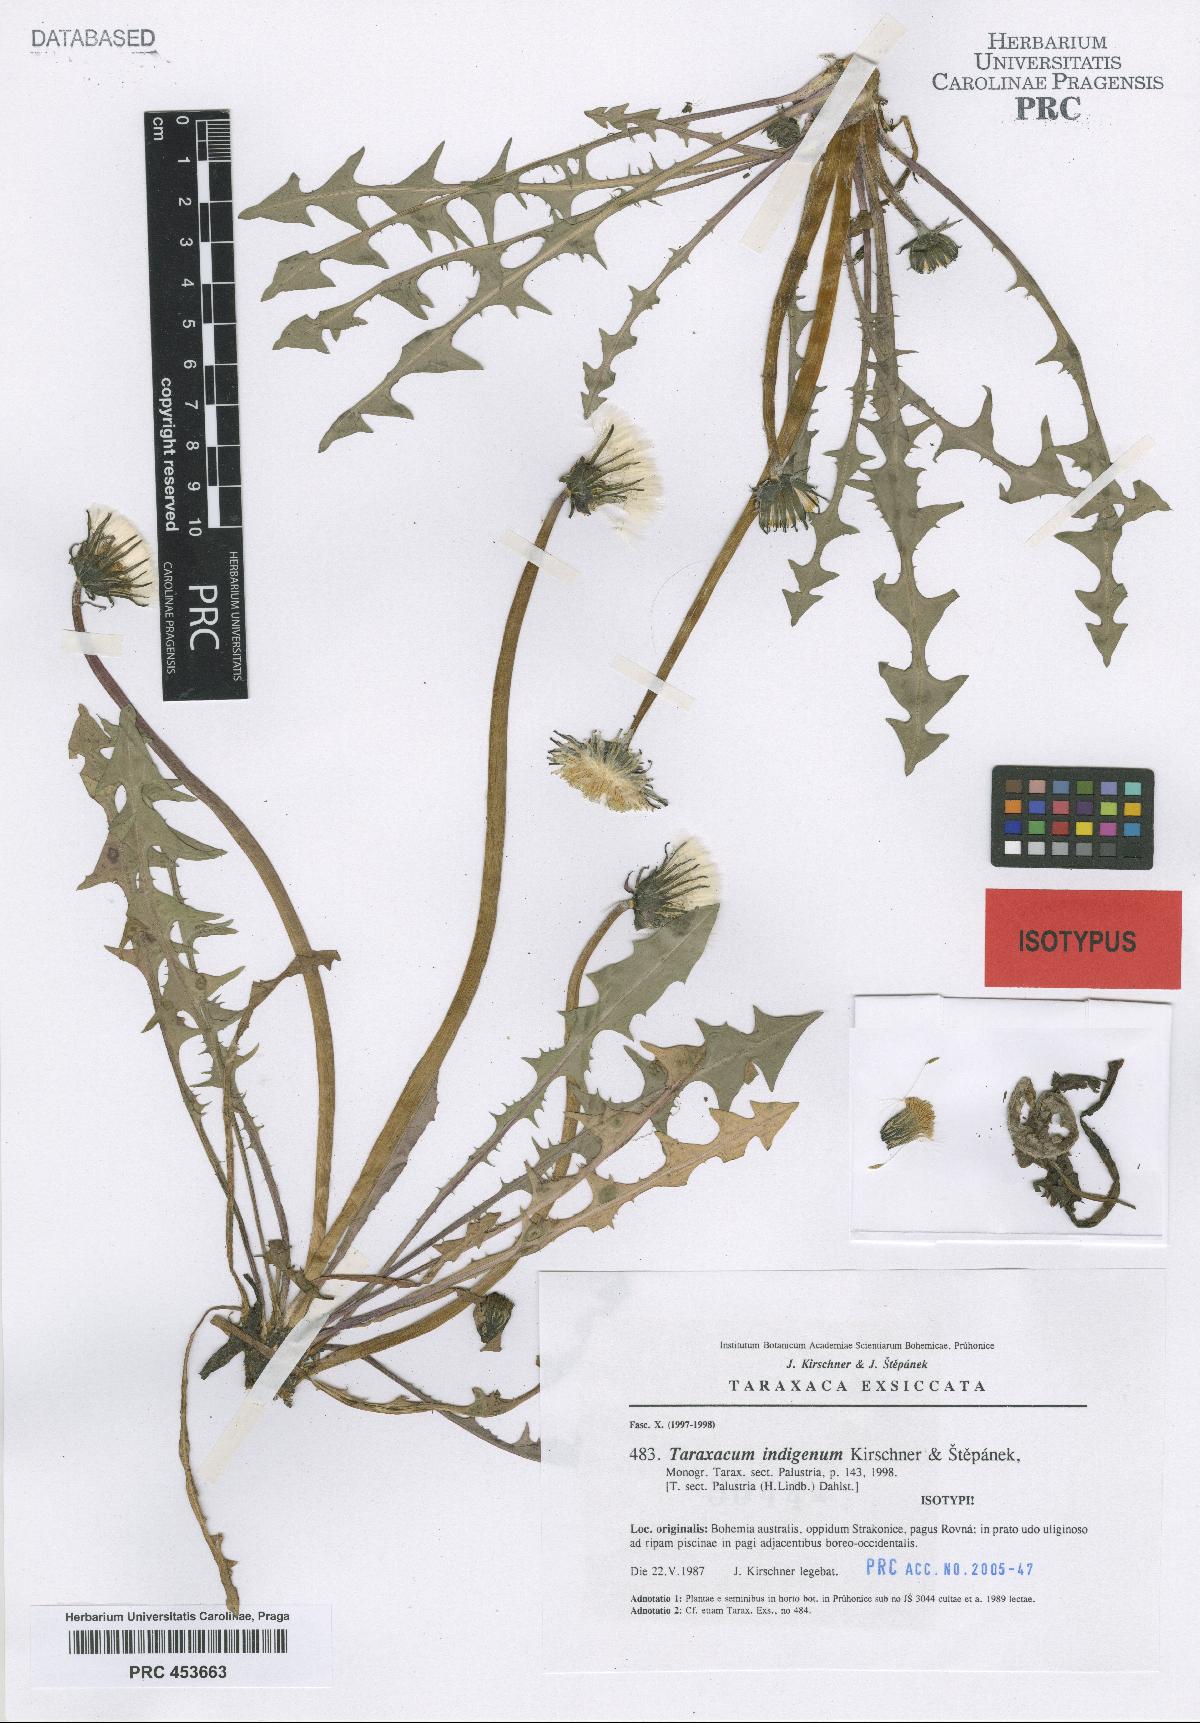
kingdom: Plantae
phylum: Tracheophyta
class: Magnoliopsida
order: Asterales
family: Asteraceae
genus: Taraxacum
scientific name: Taraxacum indigenum
